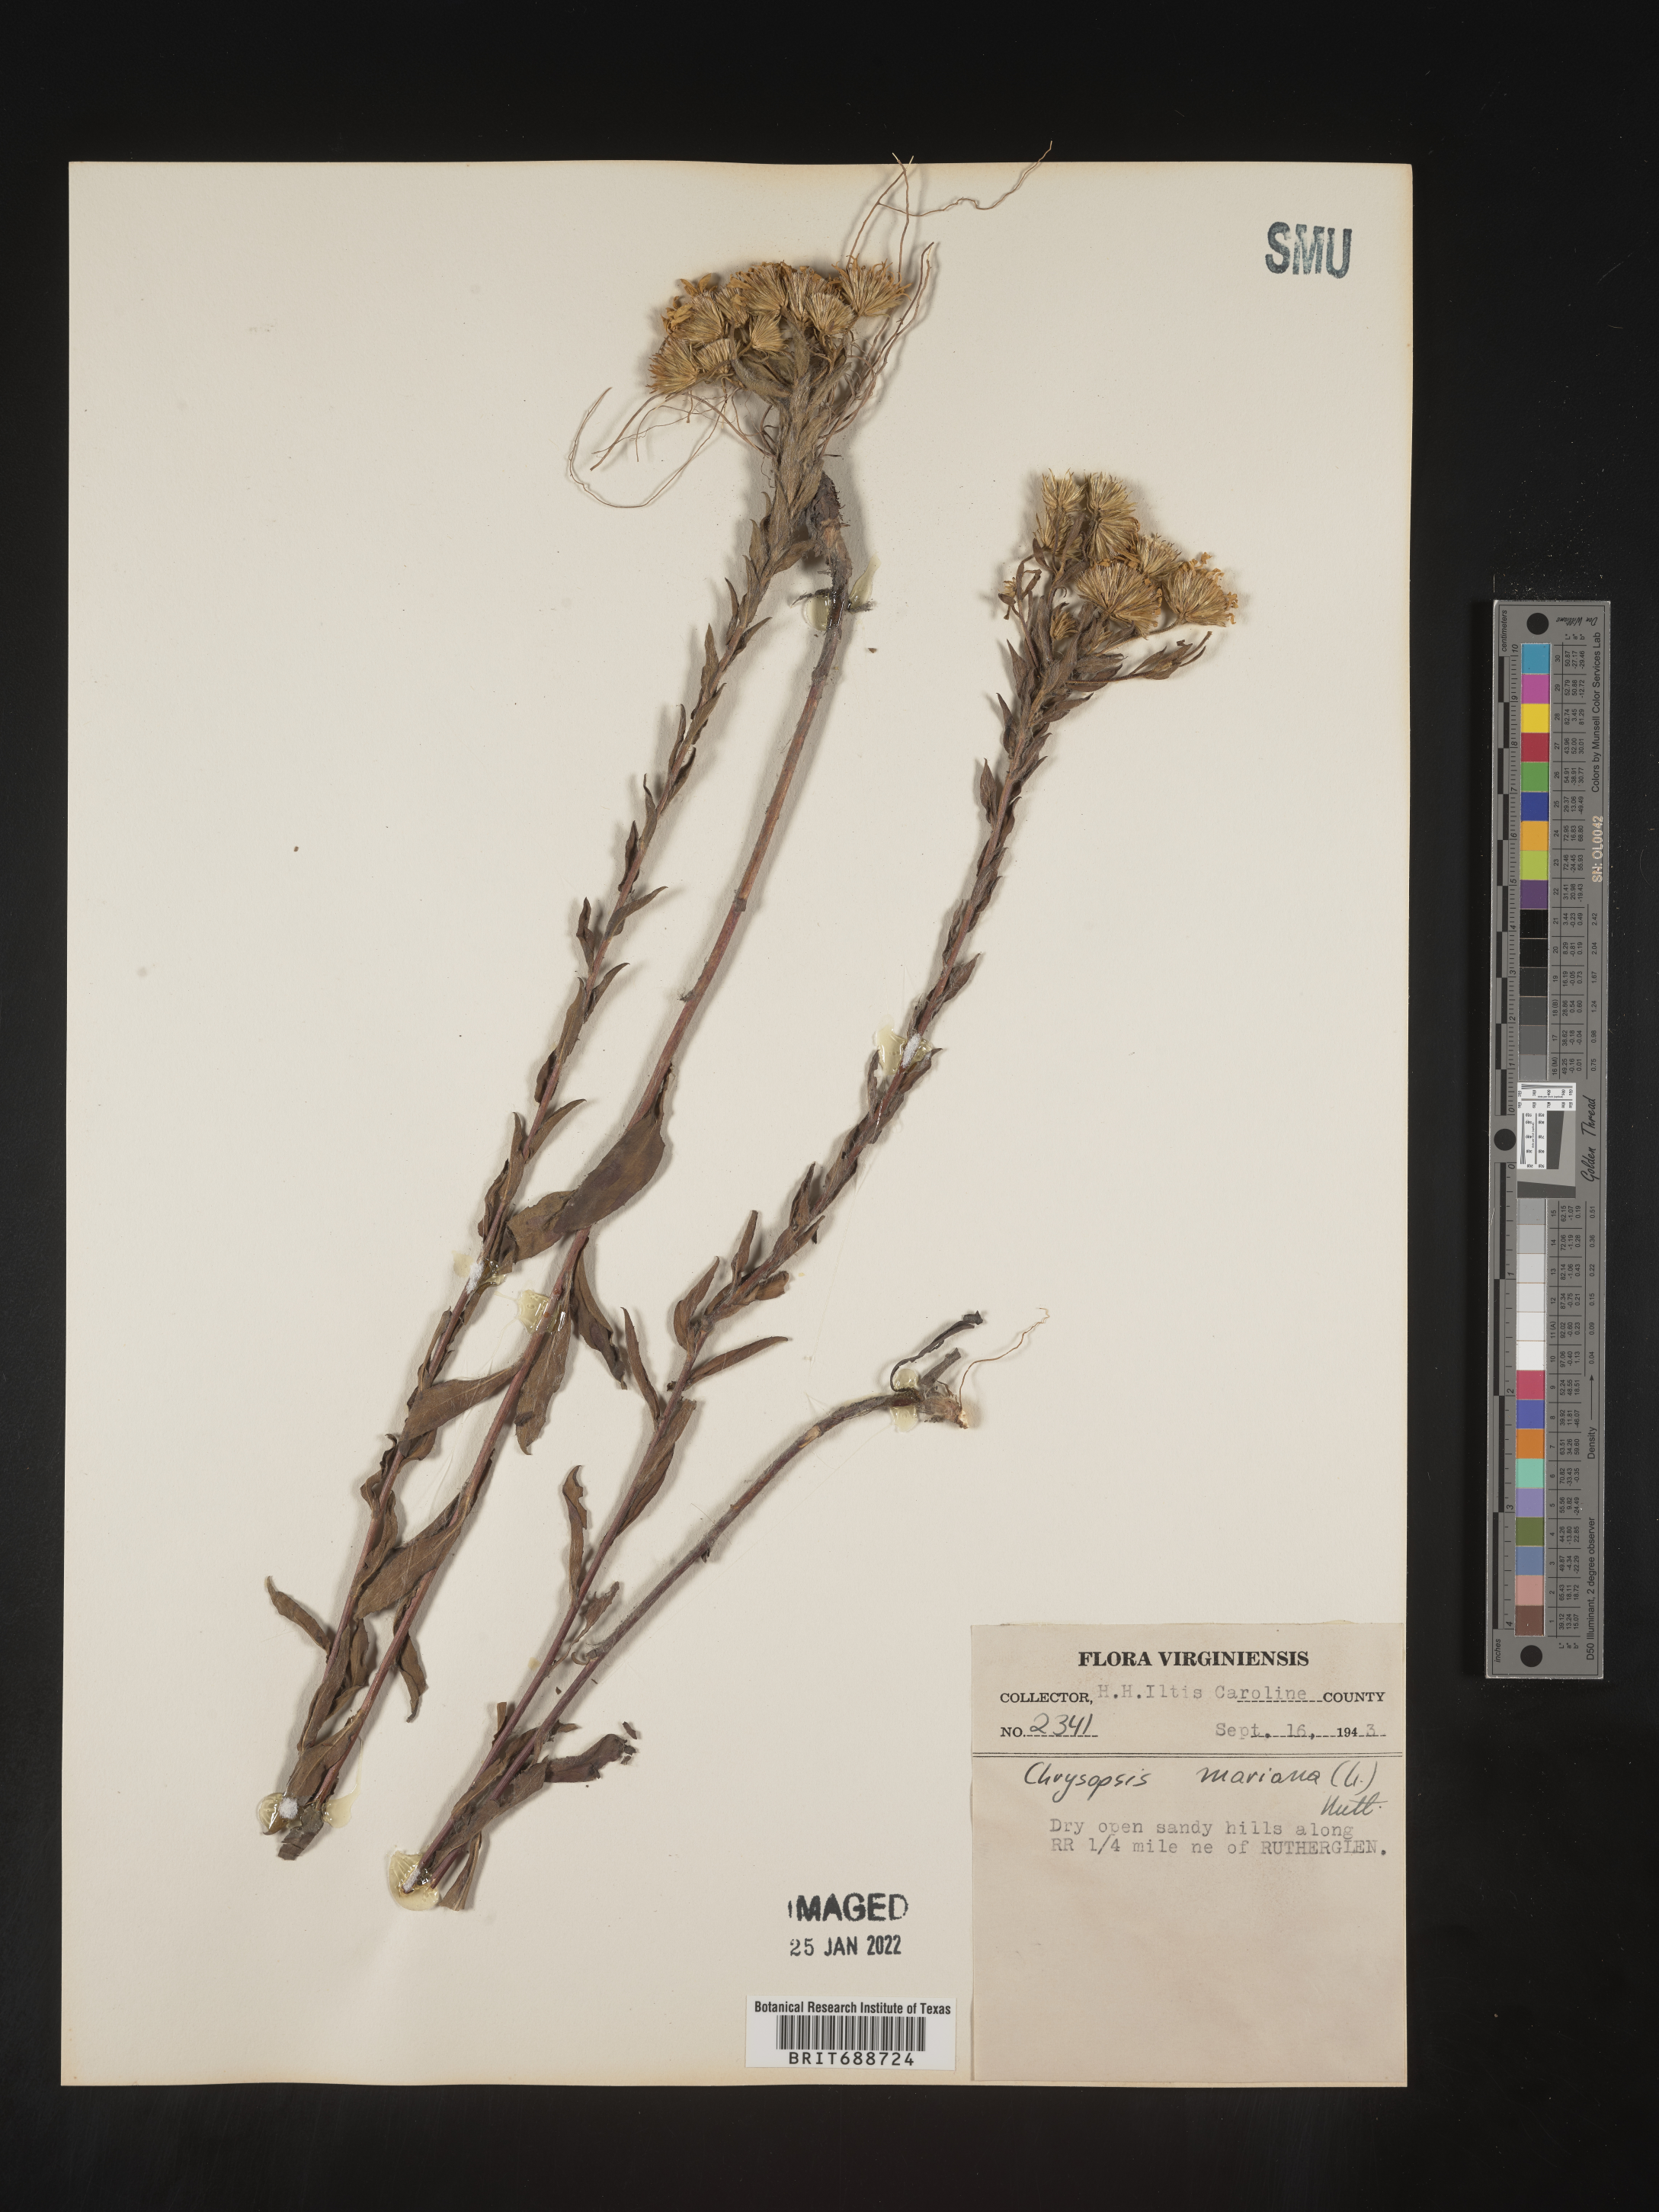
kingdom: Plantae
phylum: Tracheophyta
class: Magnoliopsida
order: Asterales
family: Asteraceae
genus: Chrysopsis
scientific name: Chrysopsis mariana
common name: Maryland golden-aster
